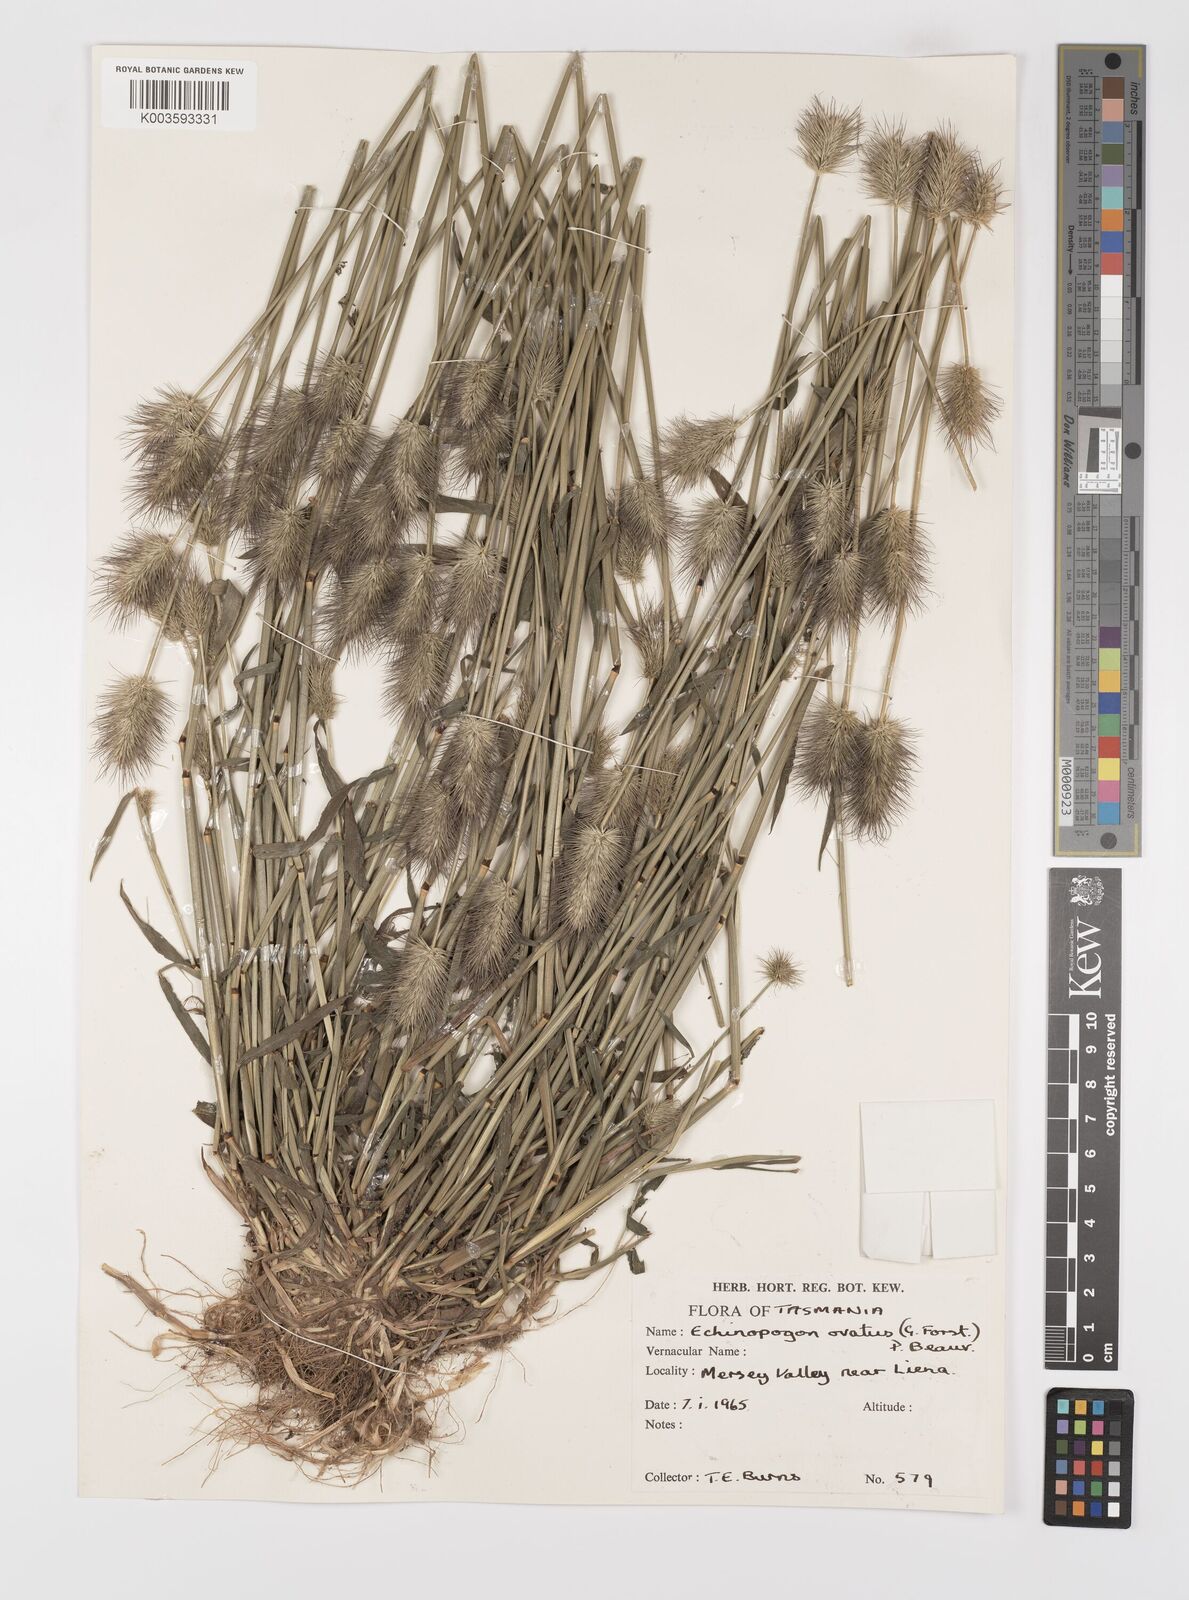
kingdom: Plantae
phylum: Tracheophyta
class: Liliopsida
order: Poales
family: Poaceae
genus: Echinopogon
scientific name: Echinopogon ovatus
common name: Hedgehog-grass
